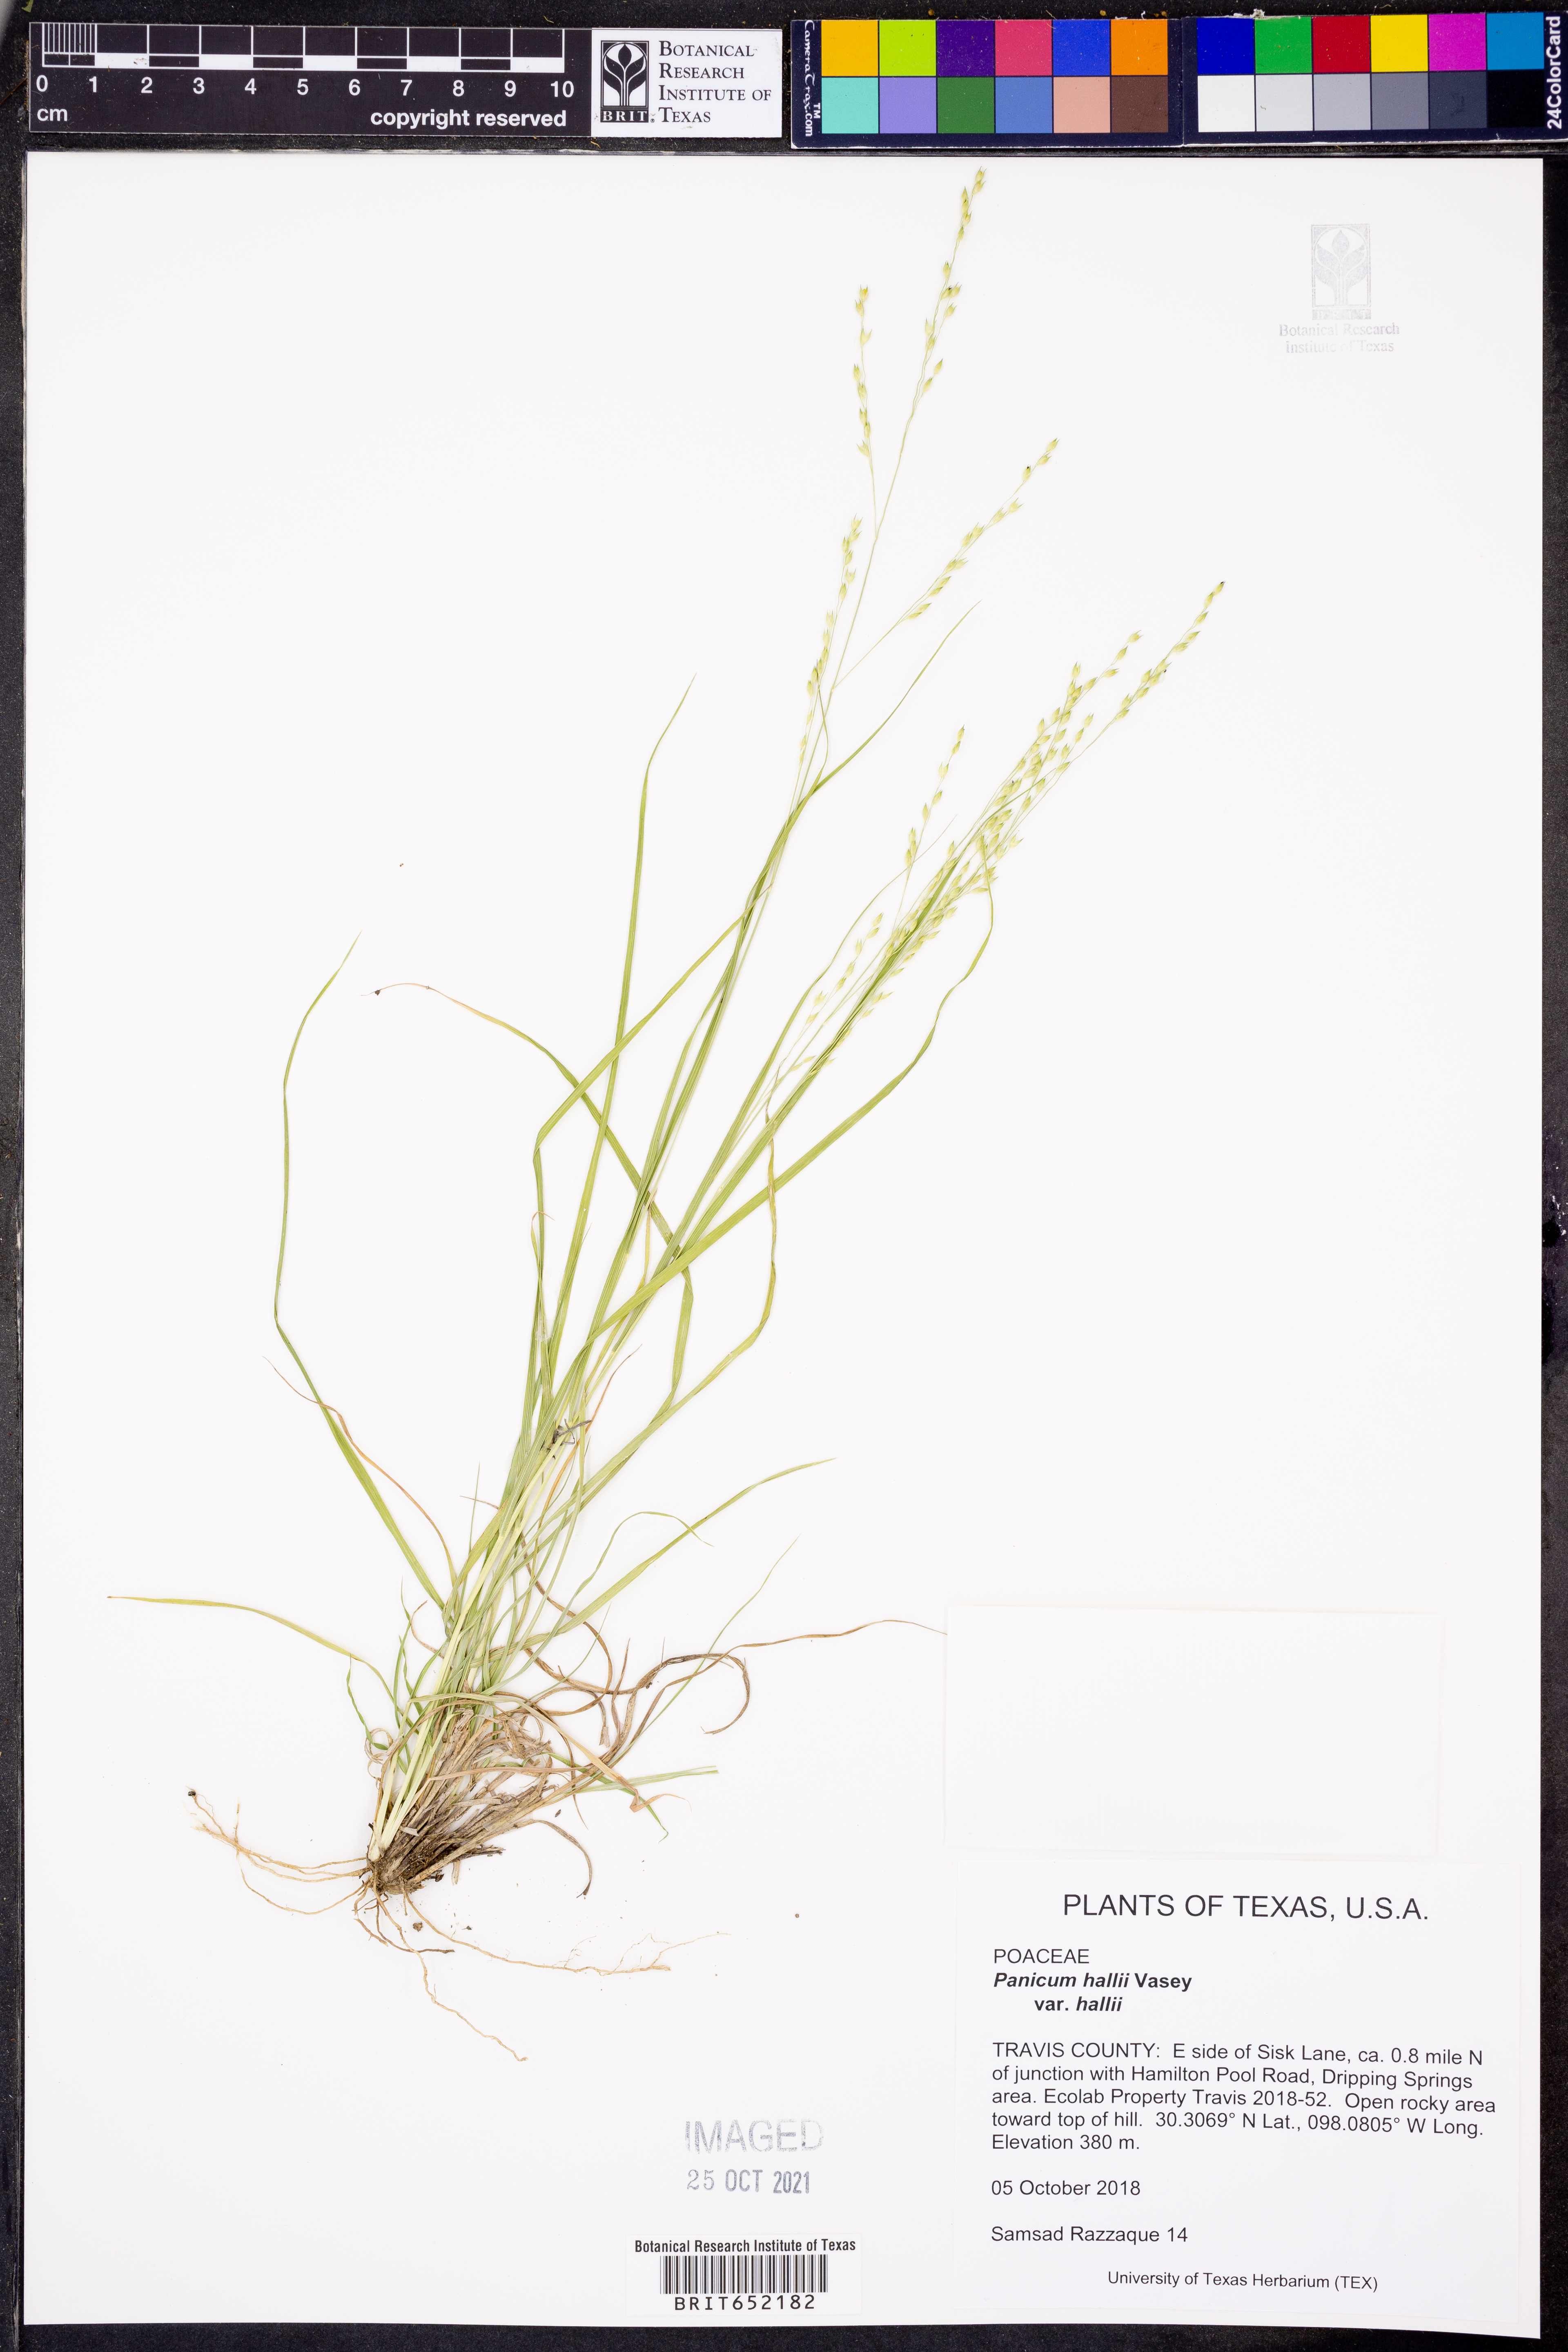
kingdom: Plantae
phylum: Tracheophyta
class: Liliopsida
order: Poales
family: Poaceae
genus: Panicum
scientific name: Panicum hallii
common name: Hall's witchgrass
